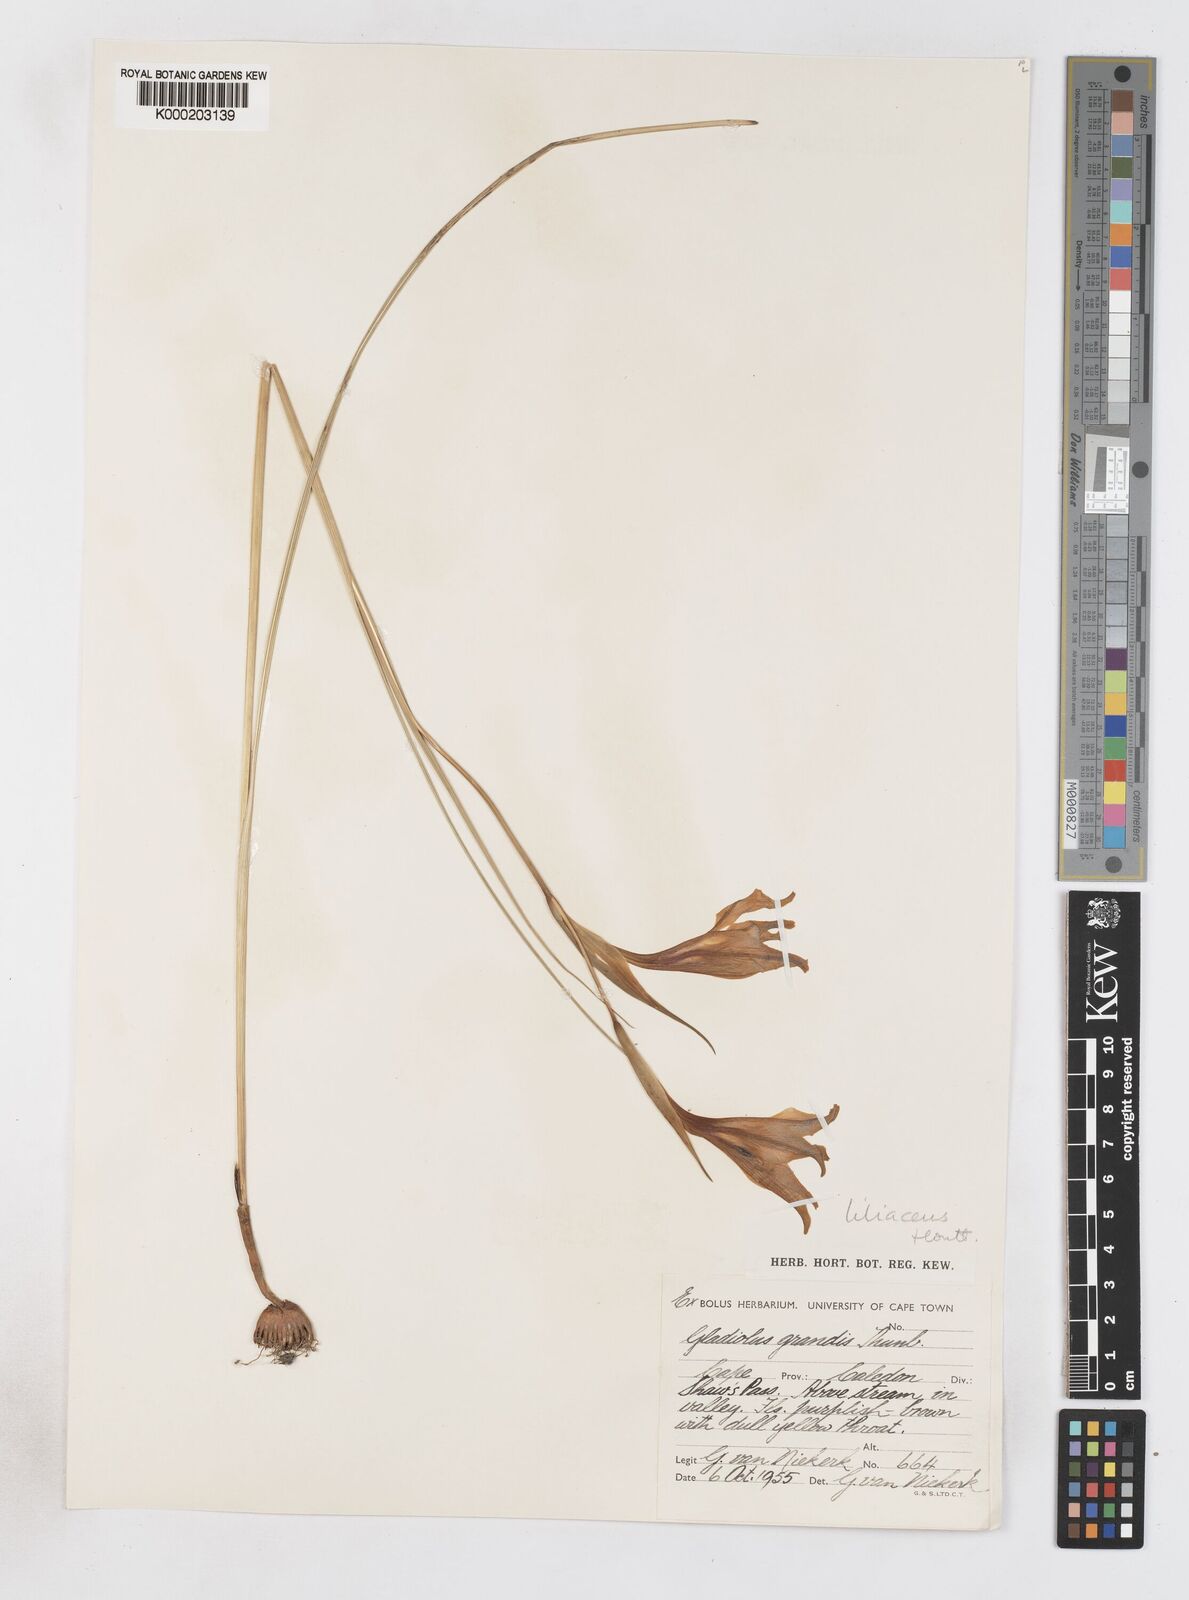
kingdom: Plantae
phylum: Tracheophyta
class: Liliopsida
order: Asparagales
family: Iridaceae
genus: Gladiolus
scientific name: Gladiolus liliaceus
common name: Large brown afrikaner
